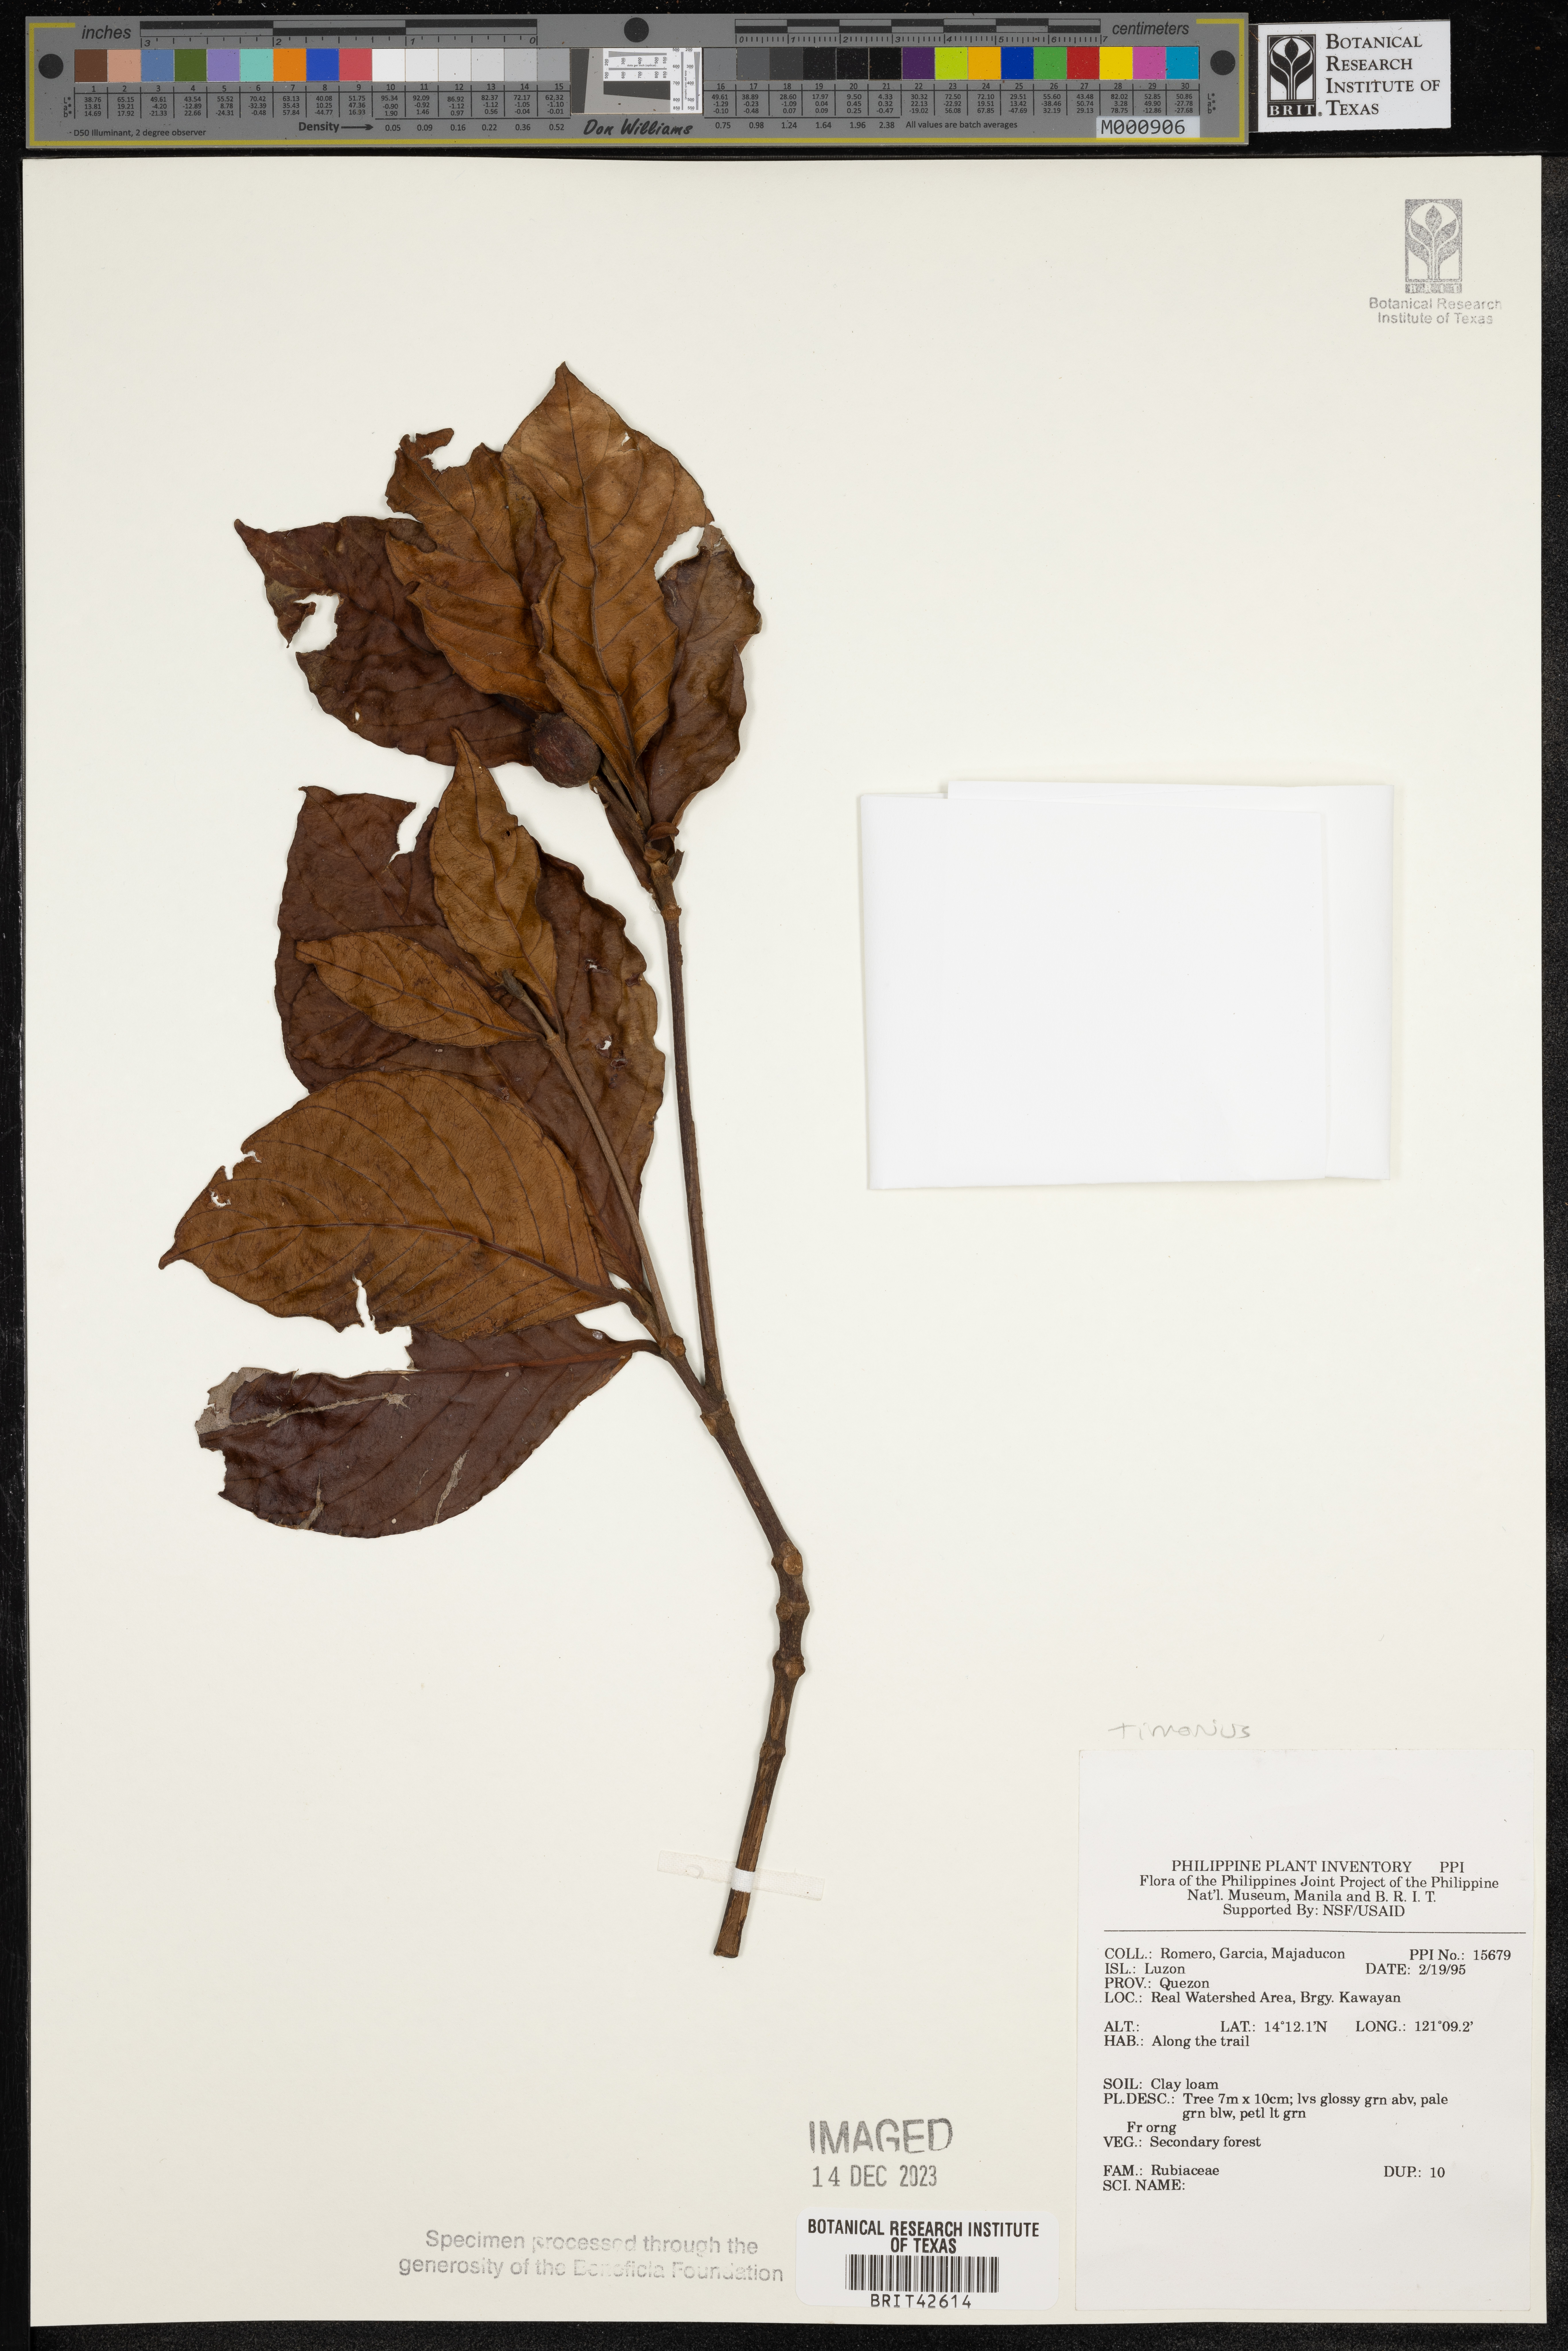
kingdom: Plantae
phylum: Tracheophyta
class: Magnoliopsida
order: Gentianales
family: Rubiaceae
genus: Timonius
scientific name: Timonius
